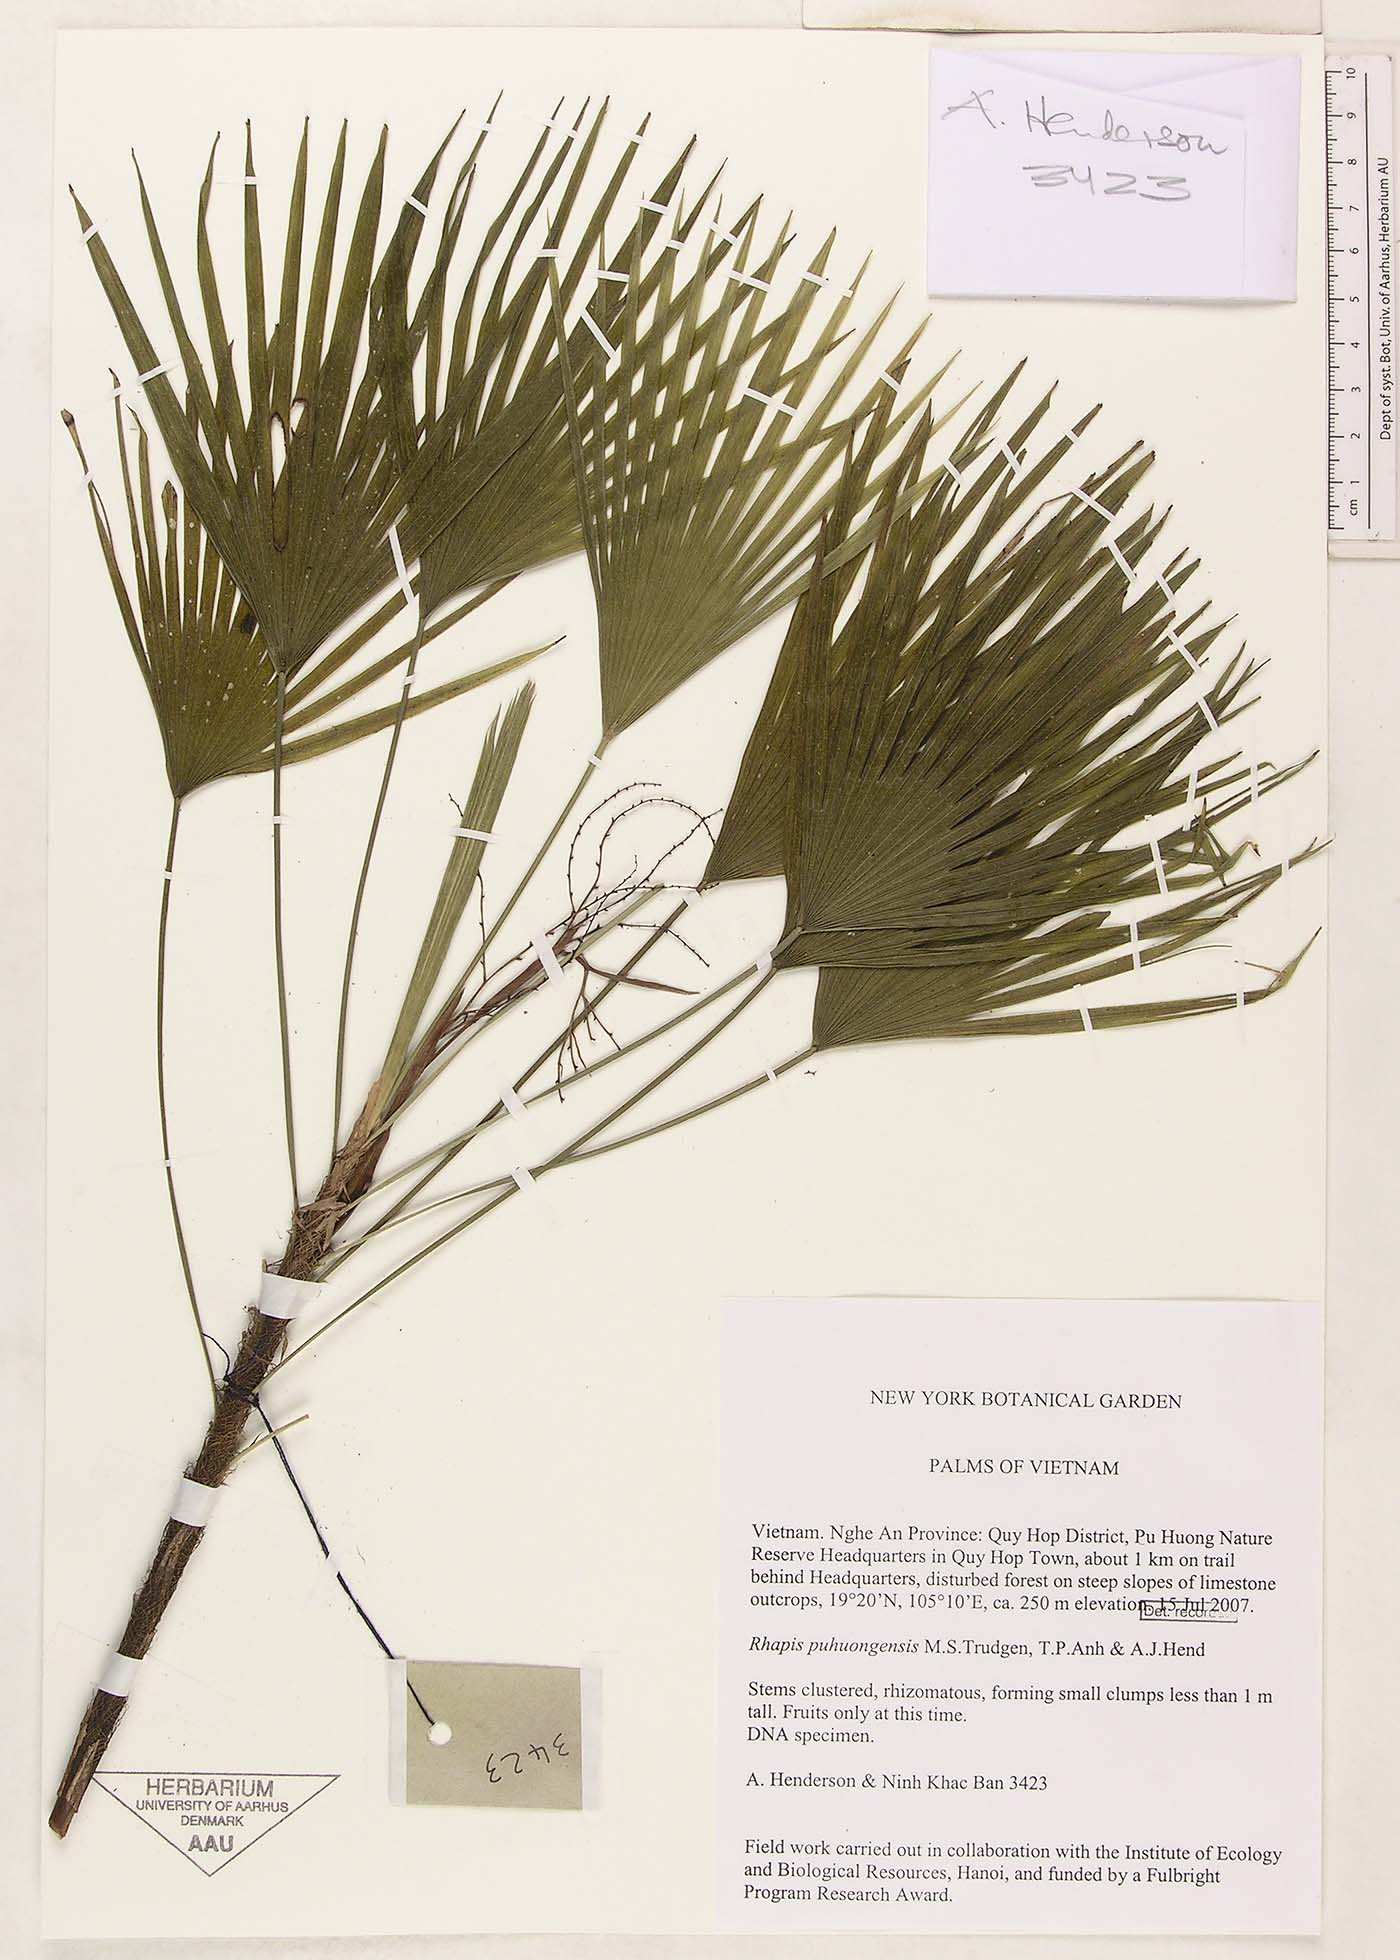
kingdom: Plantae
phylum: Tracheophyta
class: Liliopsida
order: Arecales
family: Arecaceae
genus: Rhapis
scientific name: Rhapis puhuongensis
